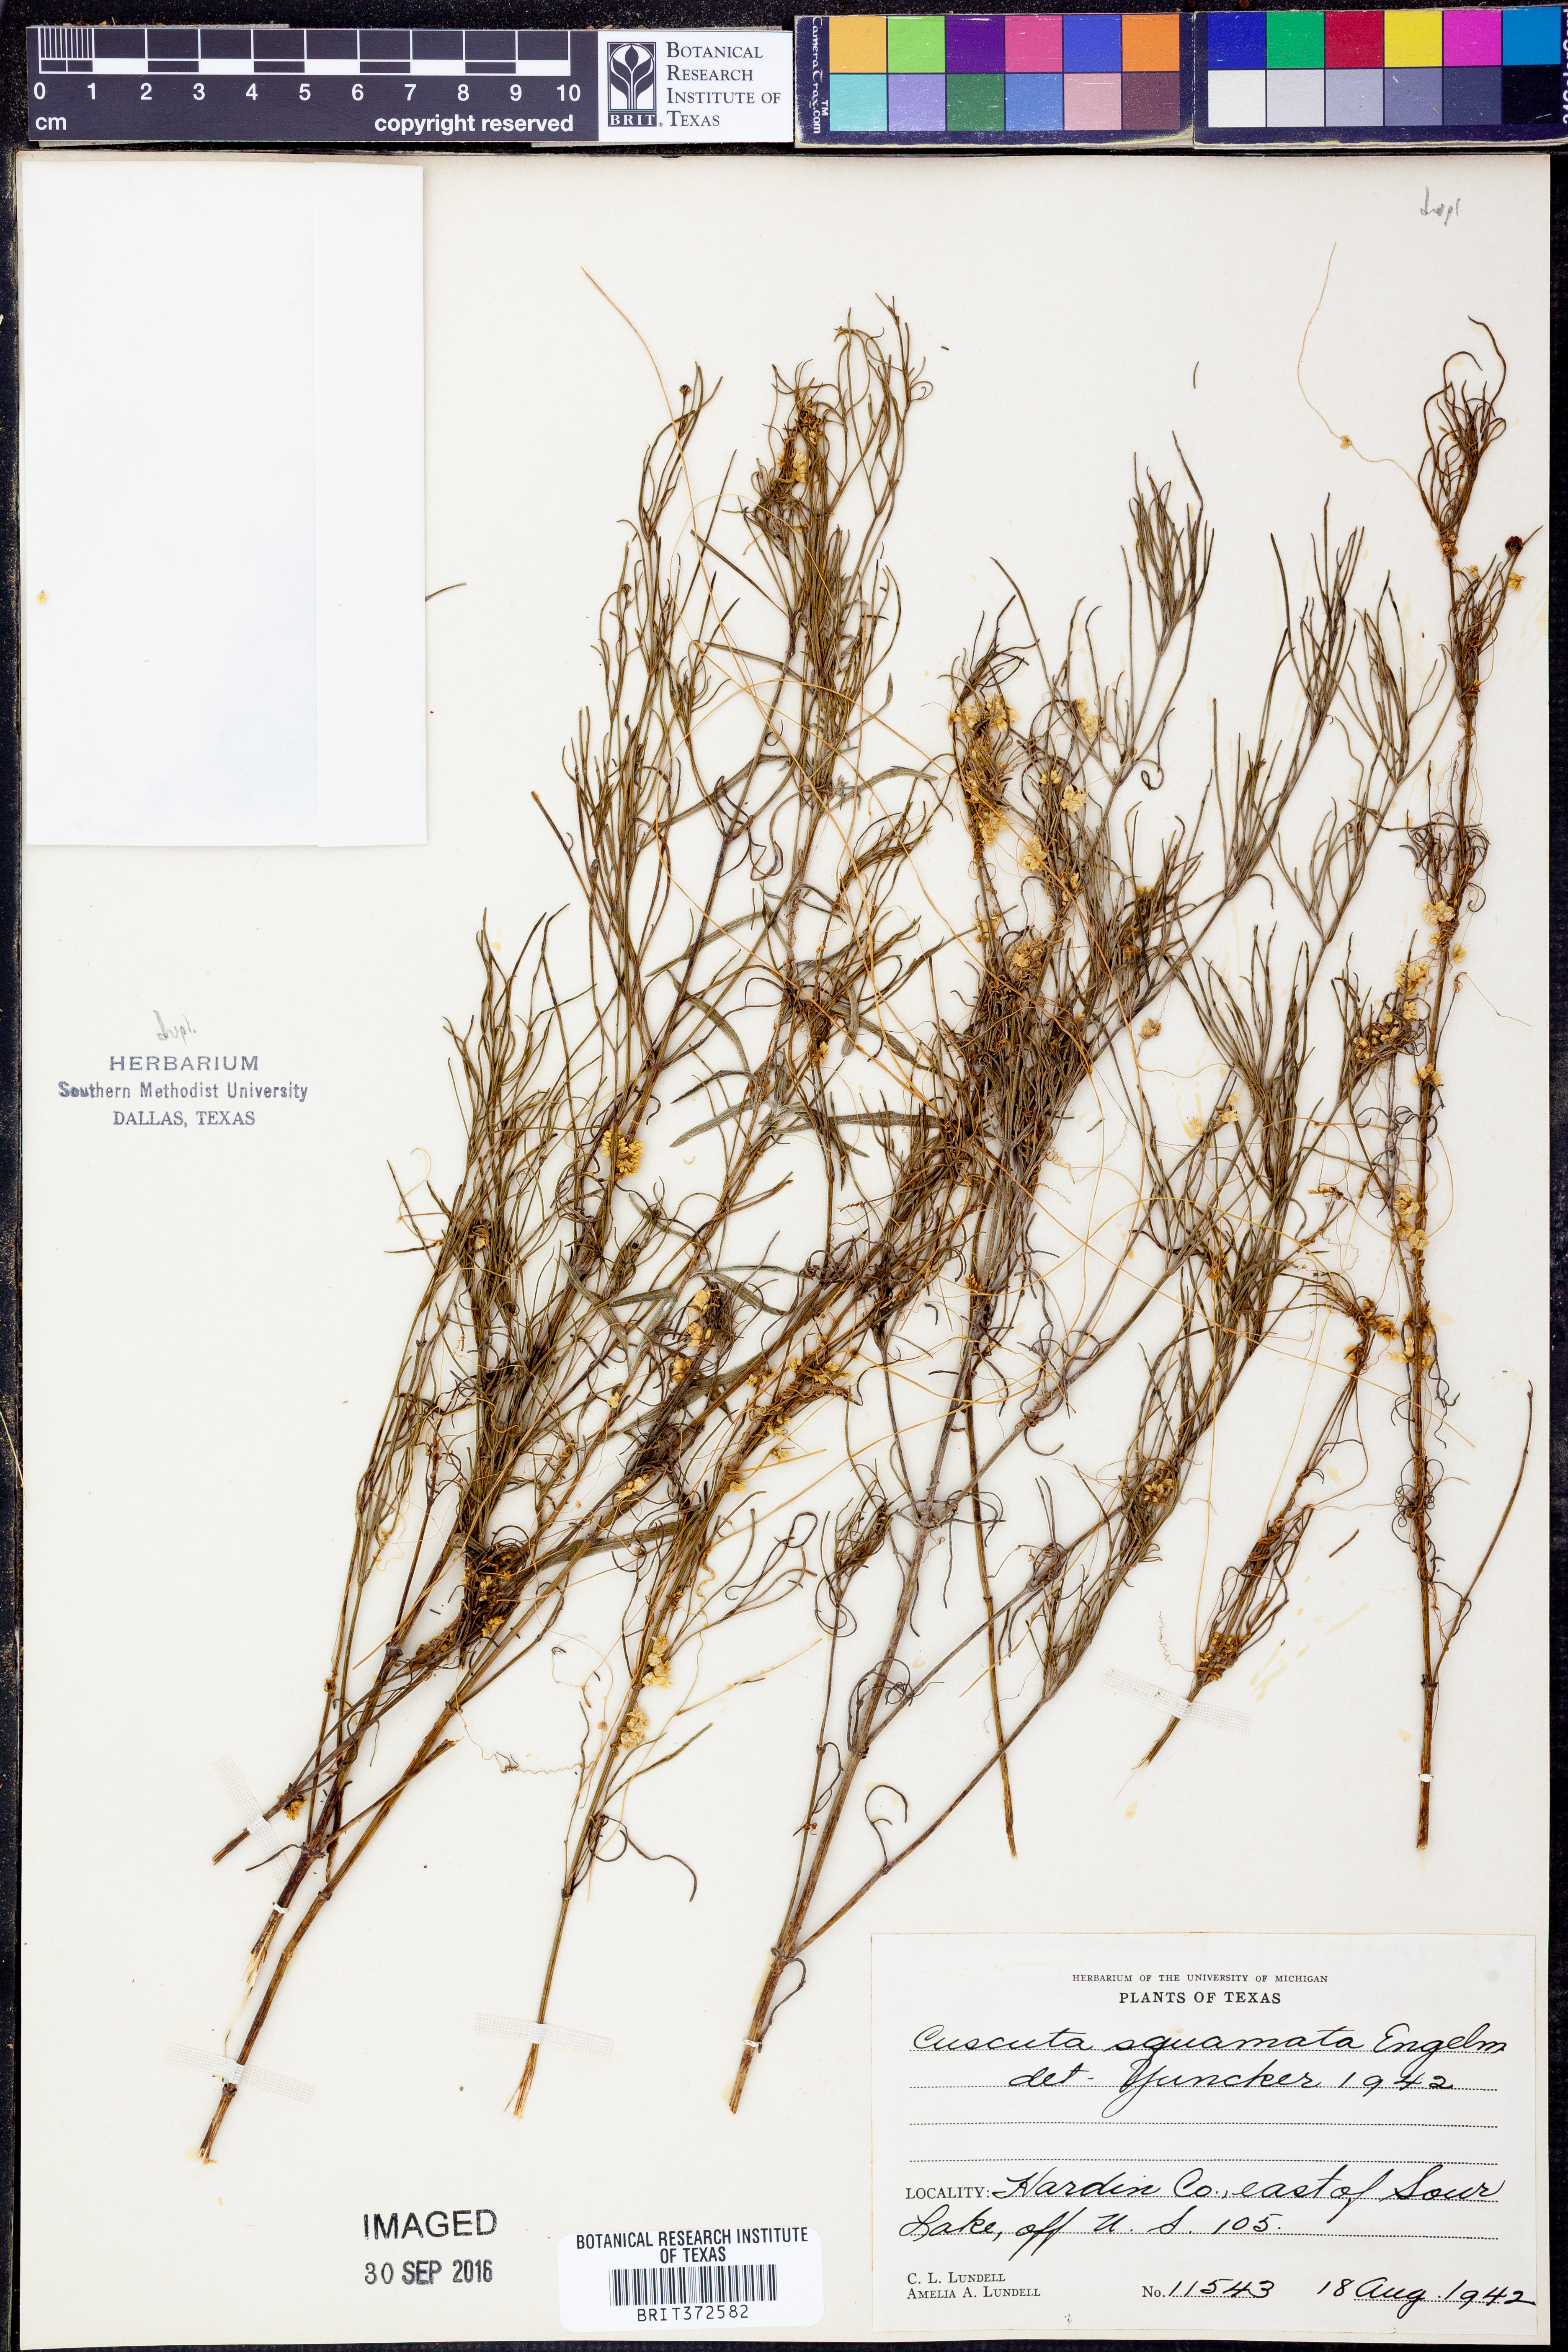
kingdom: Plantae
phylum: Tracheophyta
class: Magnoliopsida
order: Solanales
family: Convolvulaceae
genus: Cuscuta
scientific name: Cuscuta squamata
